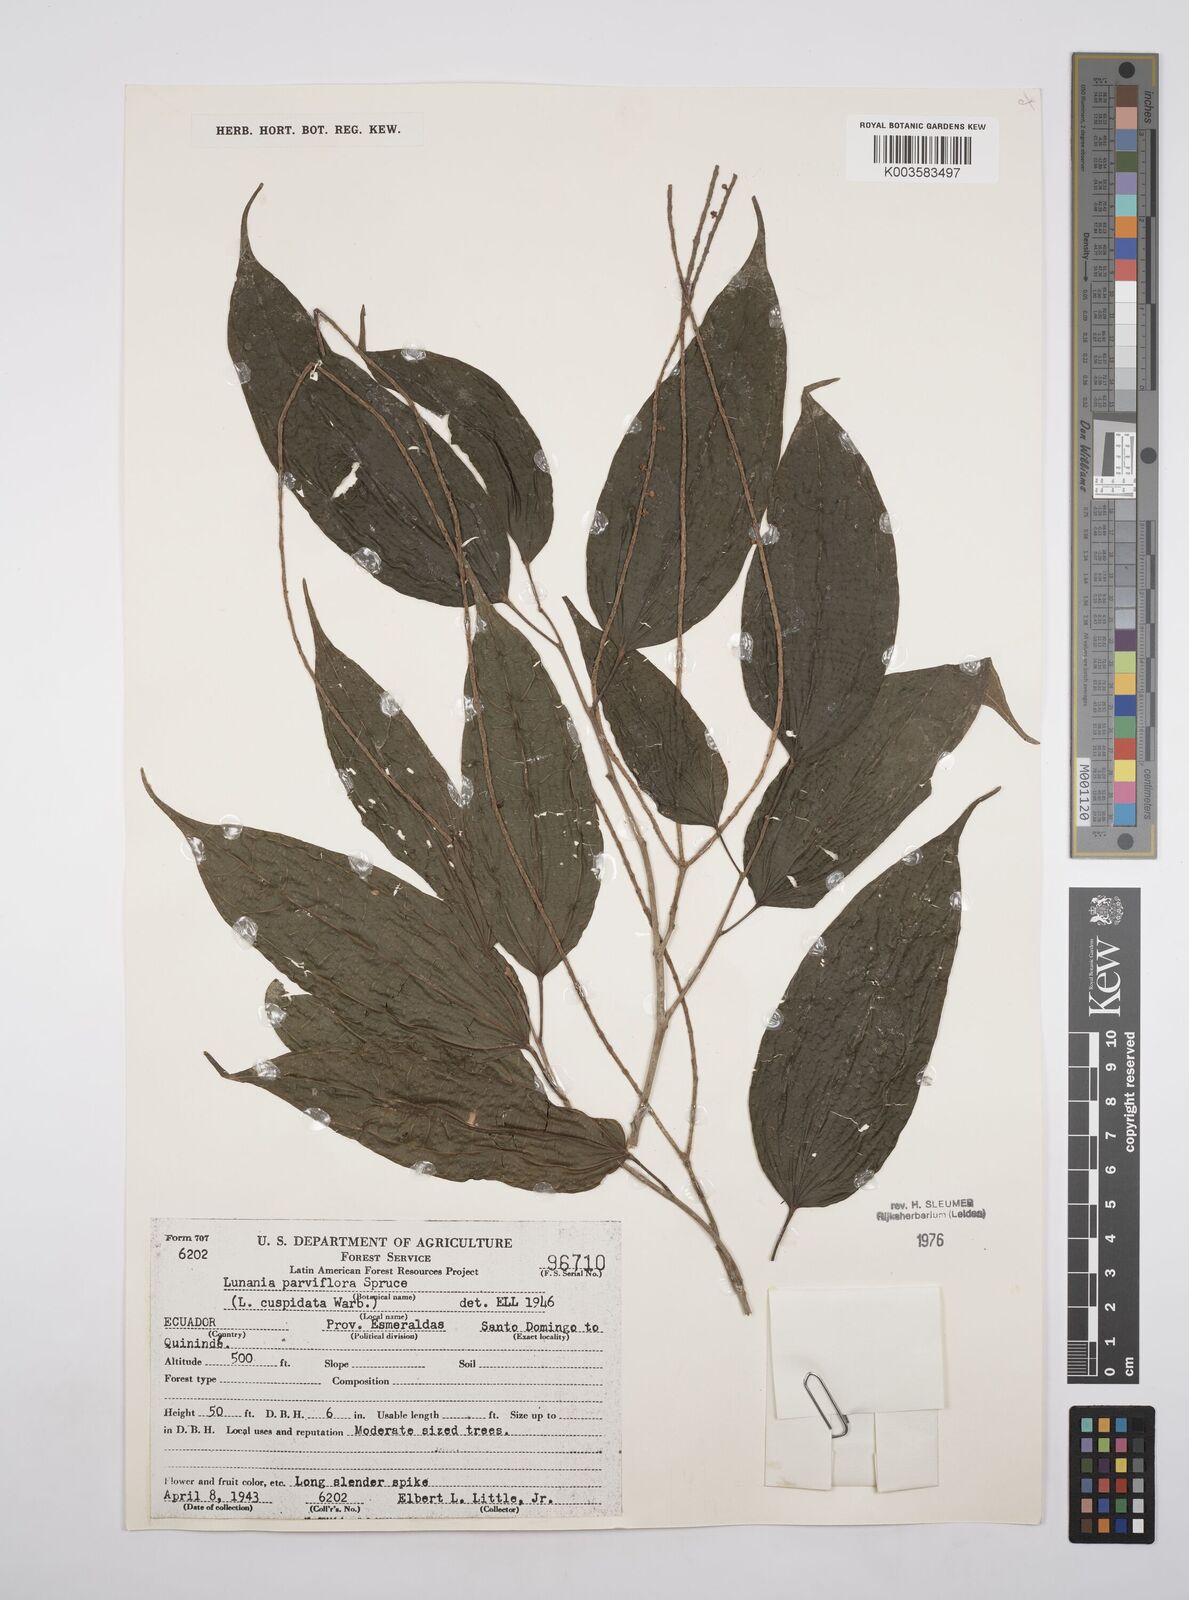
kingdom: Plantae
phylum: Tracheophyta
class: Magnoliopsida
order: Malpighiales
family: Salicaceae
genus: Lunania
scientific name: Lunania parviflora
